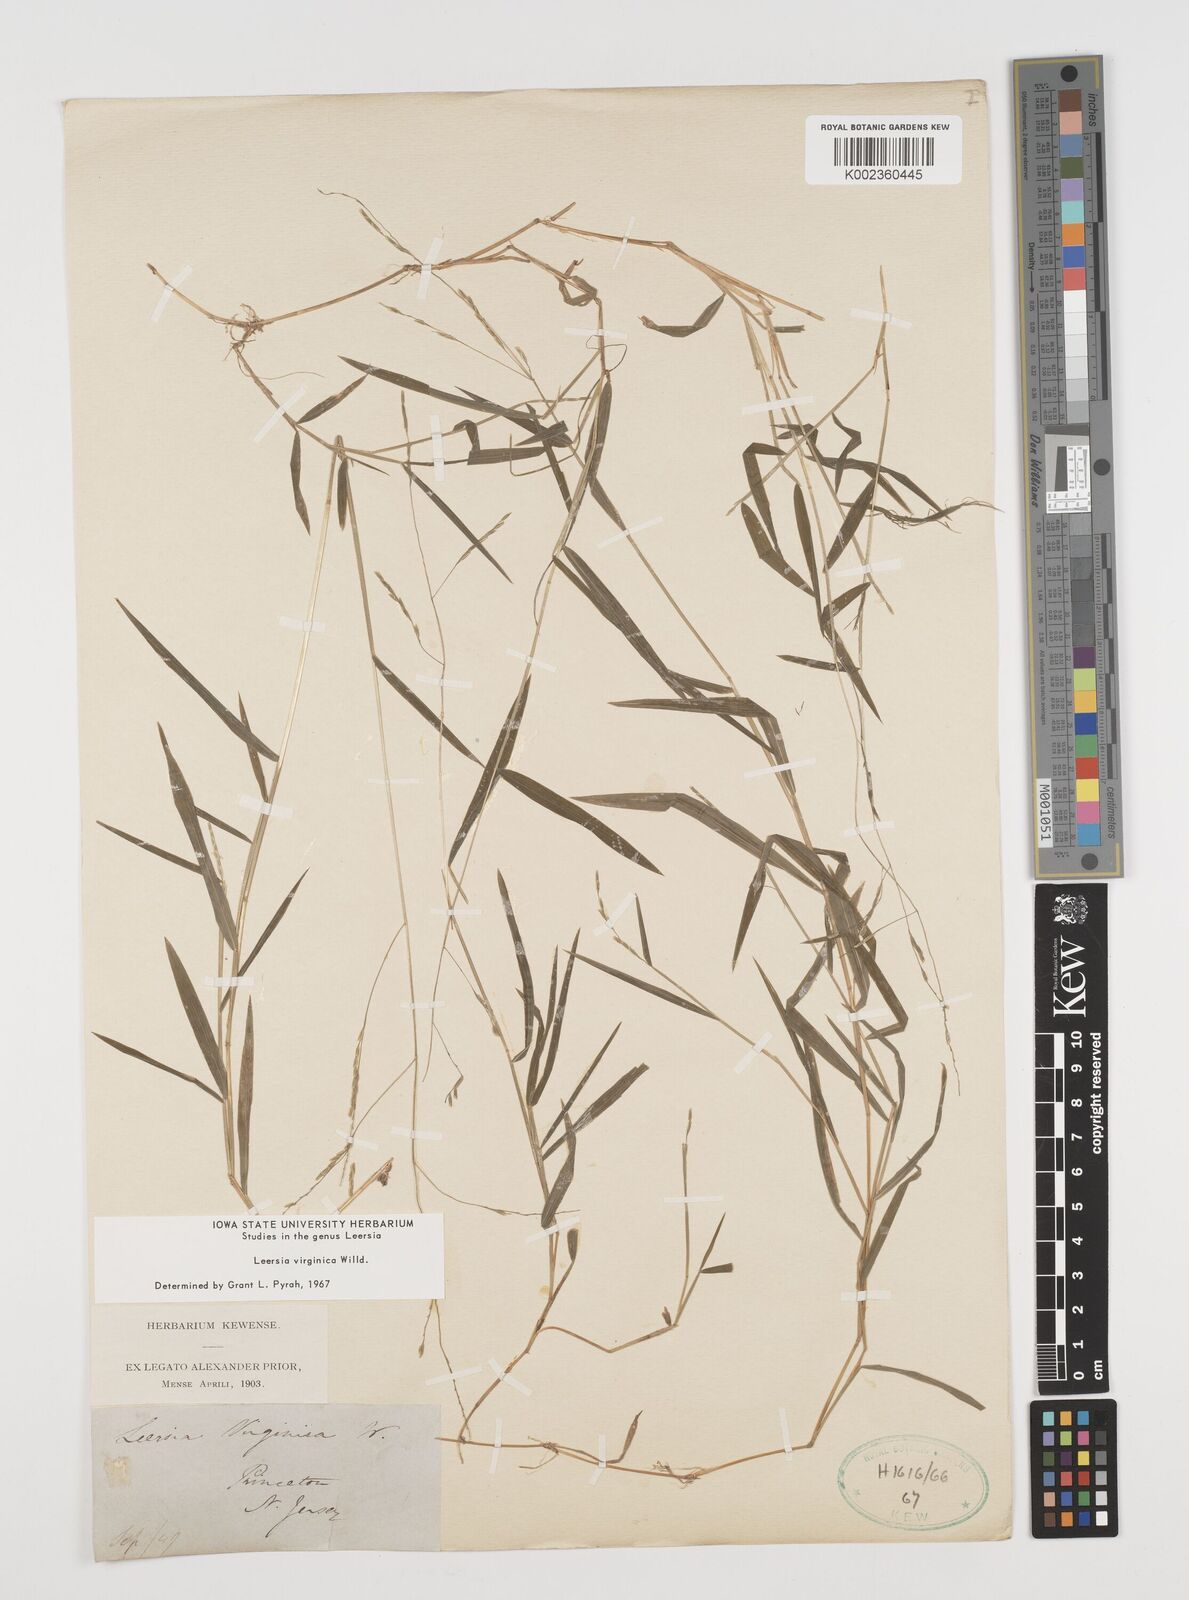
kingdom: Plantae
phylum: Tracheophyta
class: Liliopsida
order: Poales
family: Poaceae
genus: Leersia
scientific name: Leersia virginica
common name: White cutgrass
